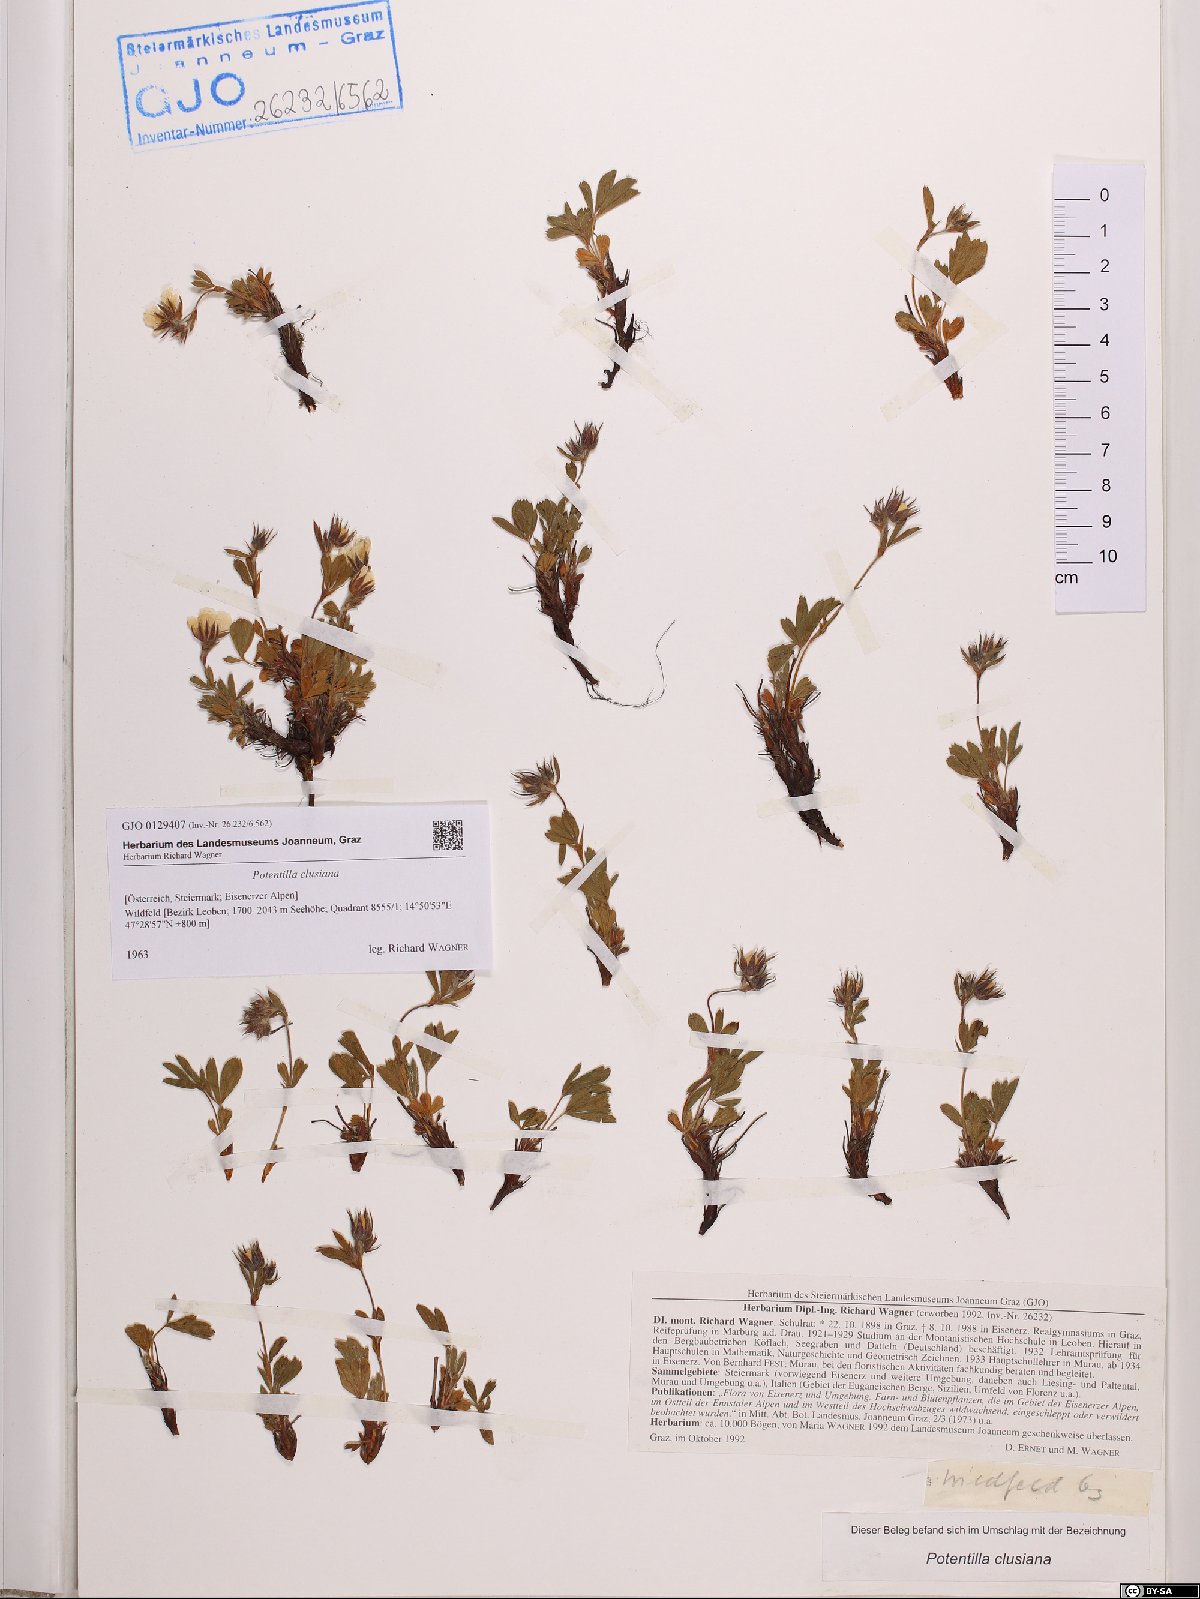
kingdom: Plantae
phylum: Tracheophyta
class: Magnoliopsida
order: Rosales
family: Rosaceae
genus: Potentilla
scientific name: Potentilla clusiana
